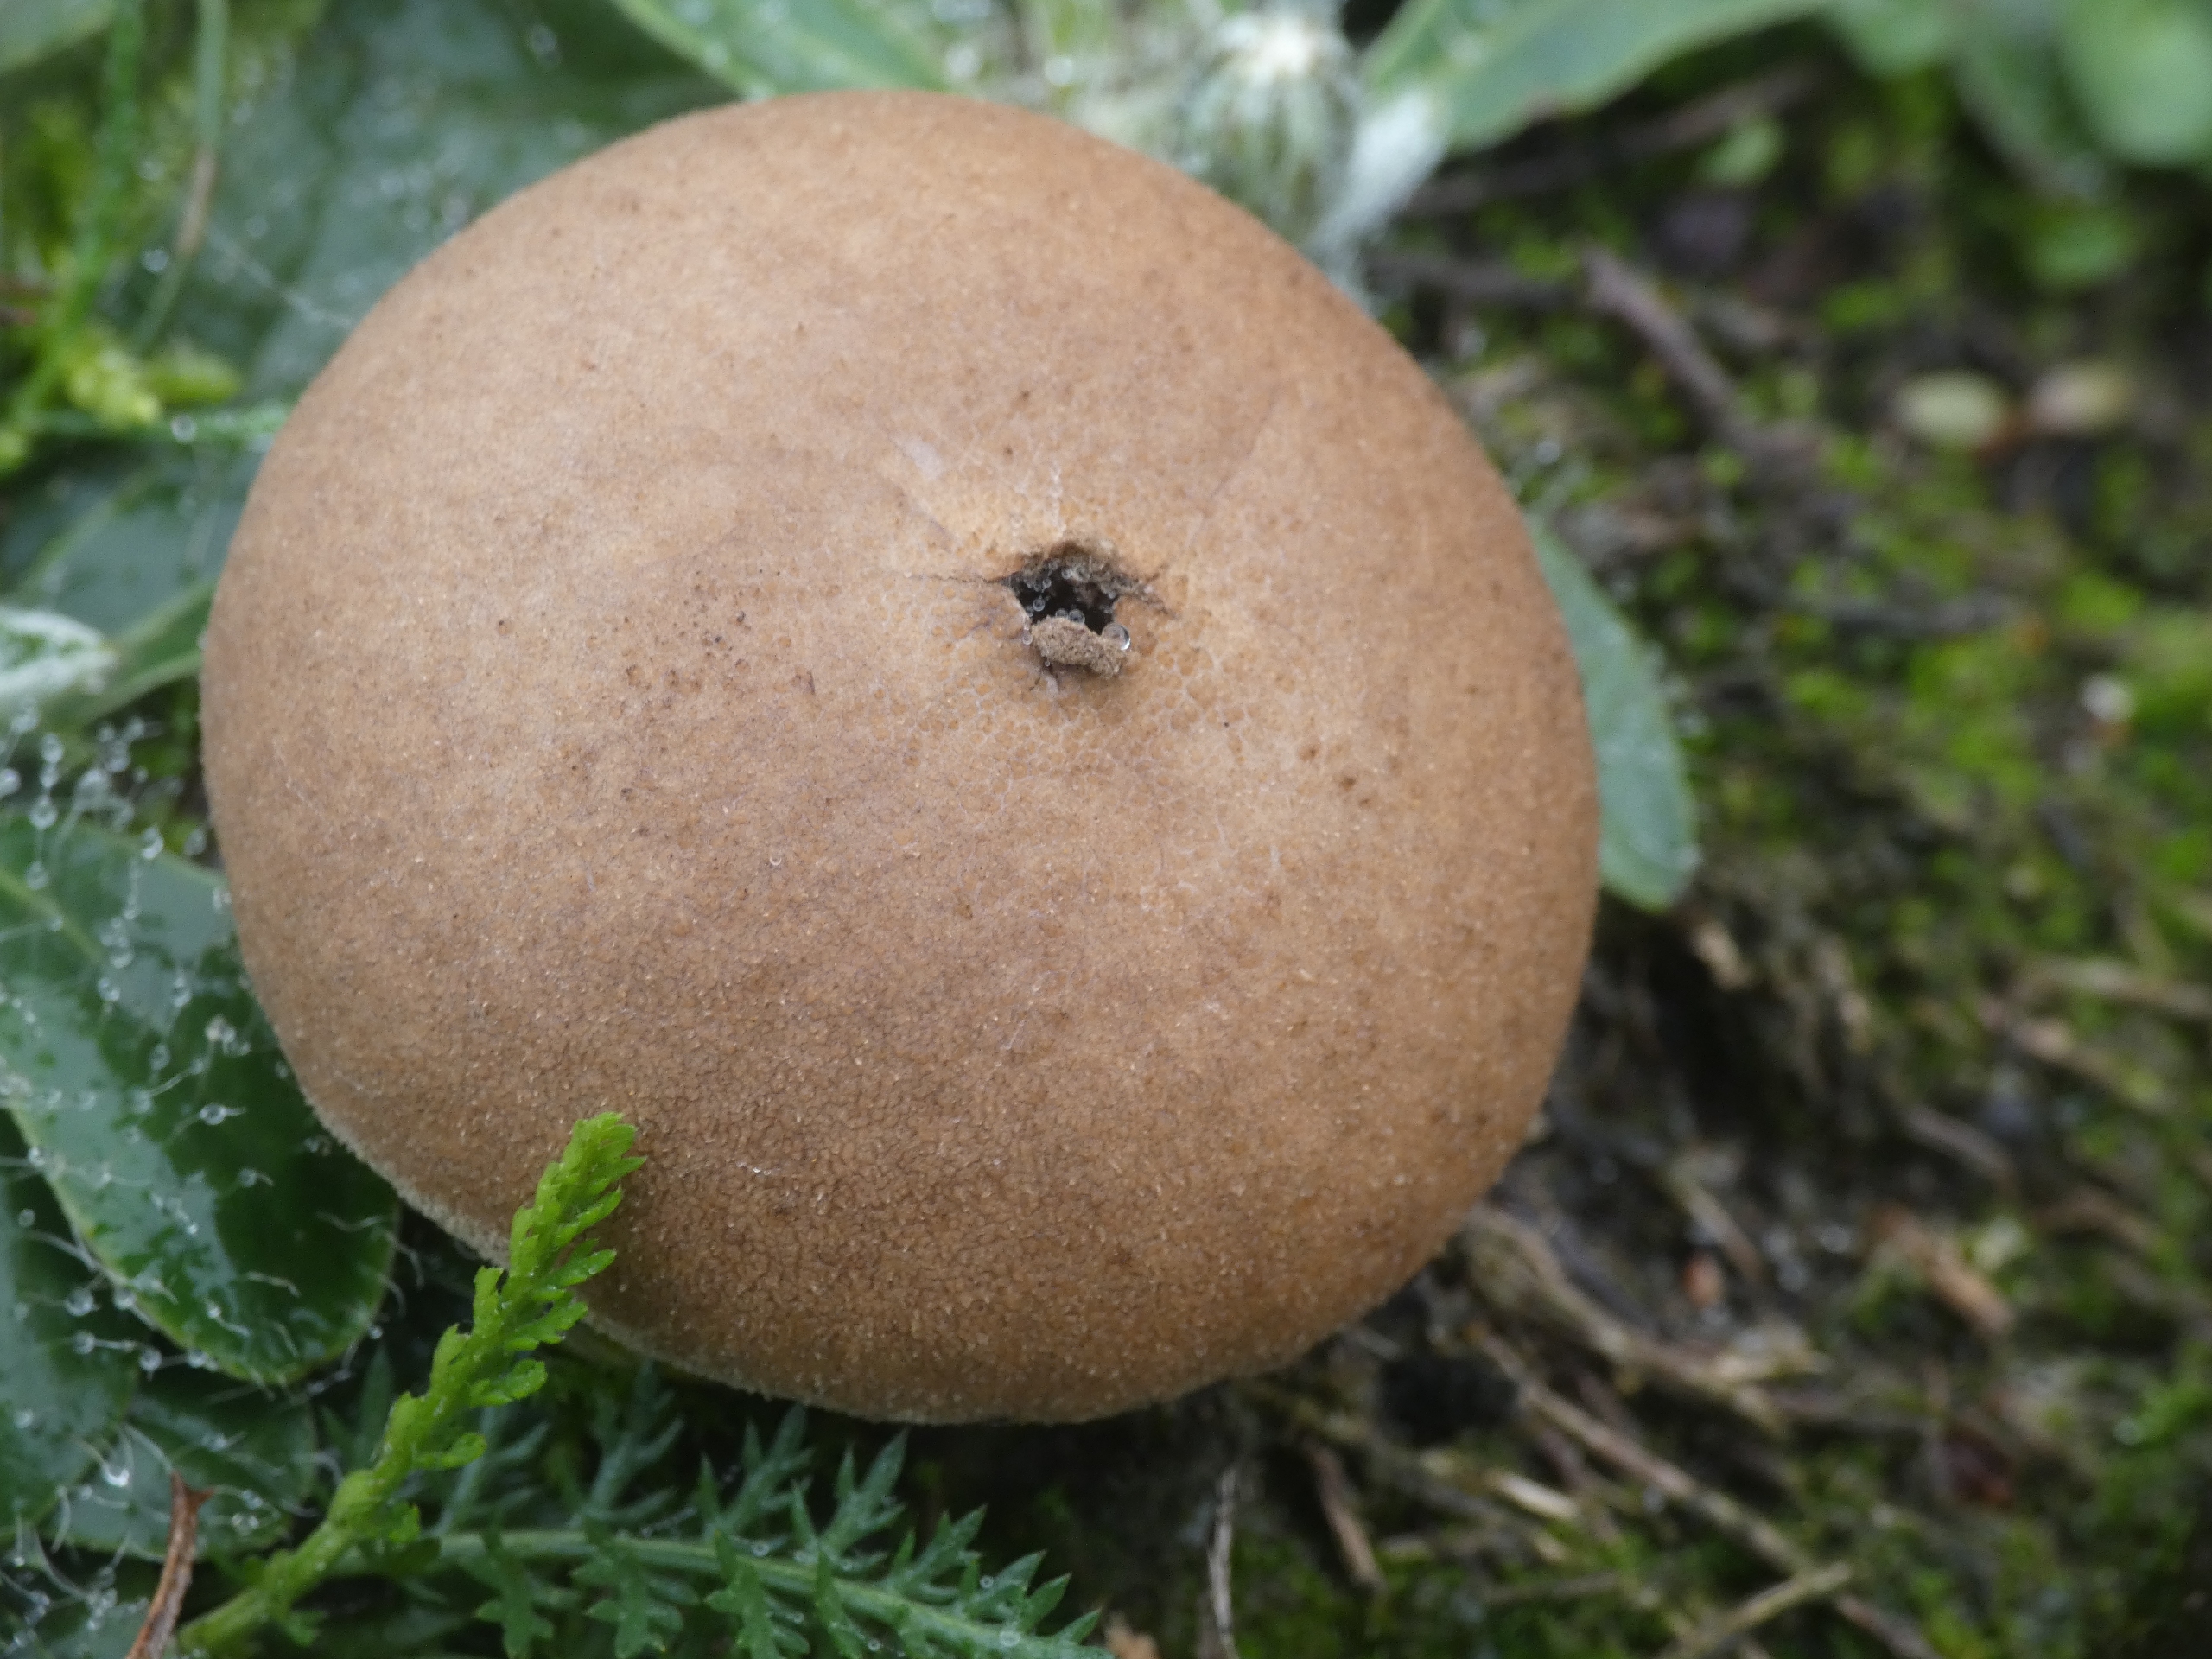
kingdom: Fungi
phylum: Basidiomycota
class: Agaricomycetes
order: Agaricales
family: Lycoperdaceae
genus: Lycoperdon
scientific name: Lycoperdon
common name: Støvbold
